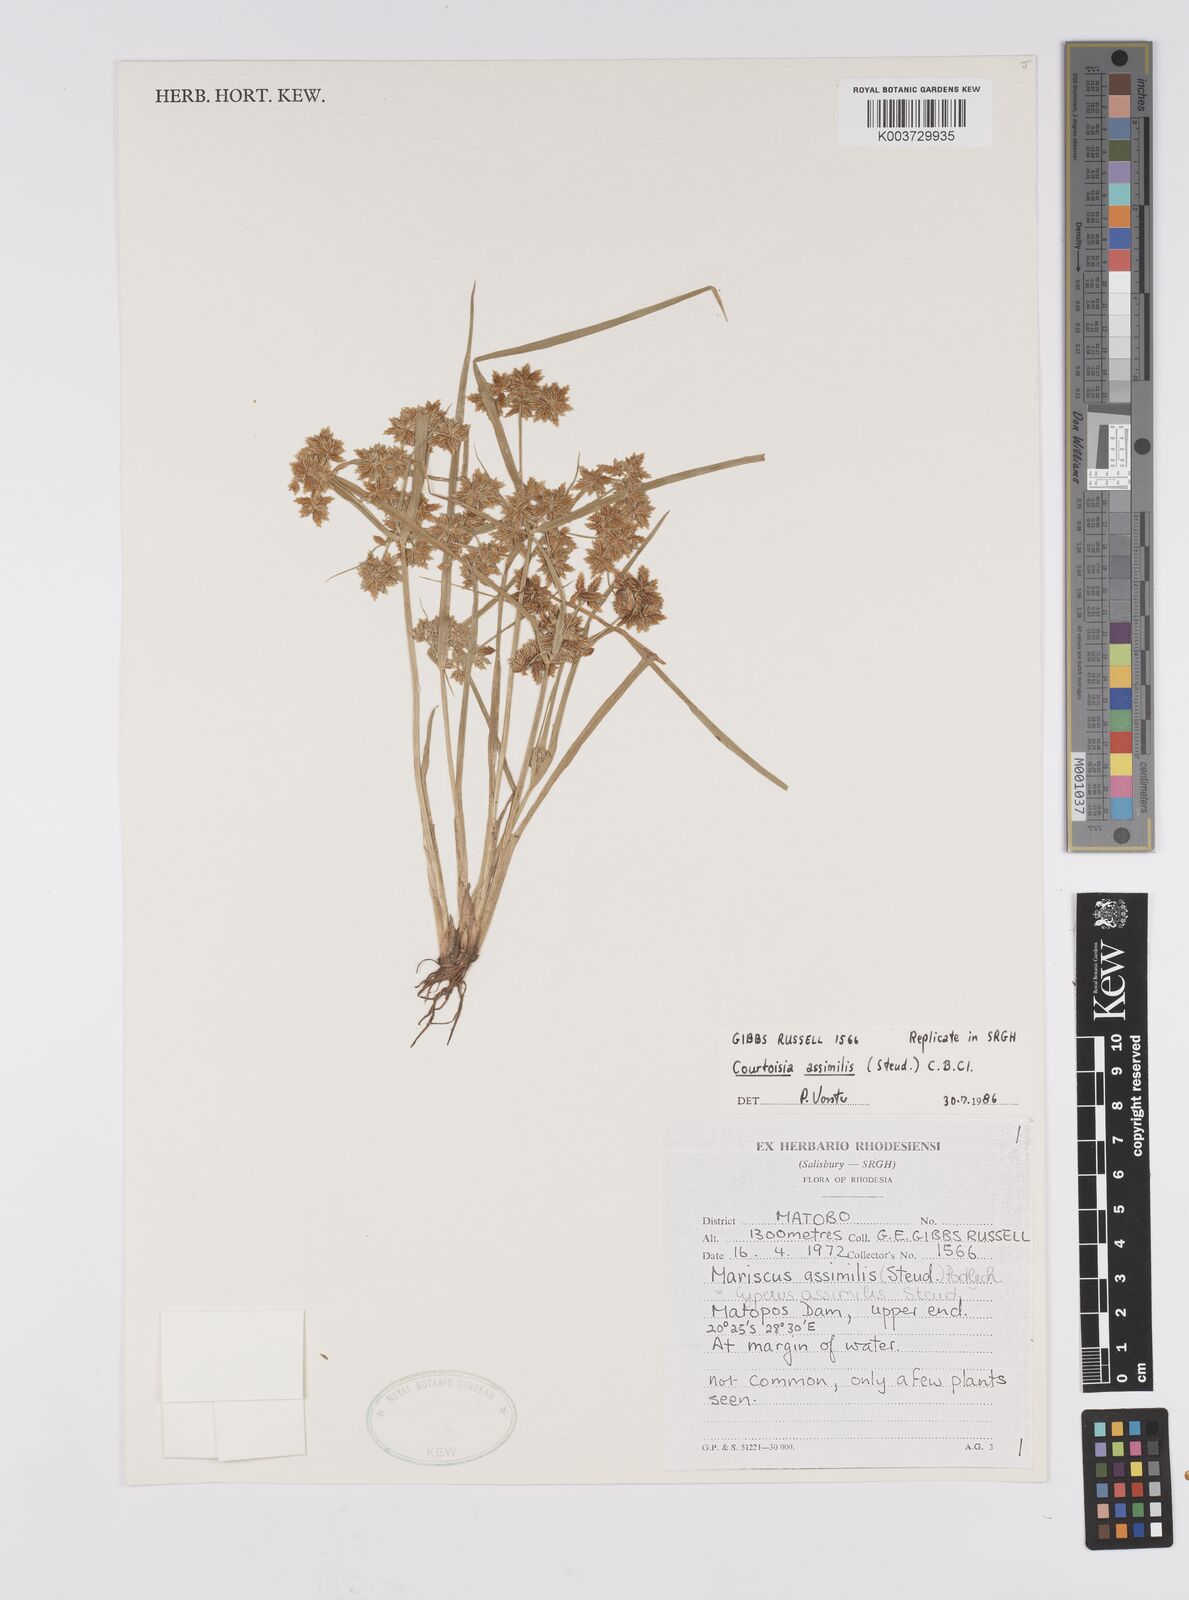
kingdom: Plantae
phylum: Tracheophyta
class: Liliopsida
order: Poales
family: Cyperaceae
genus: Cyperus
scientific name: Cyperus assimilis
